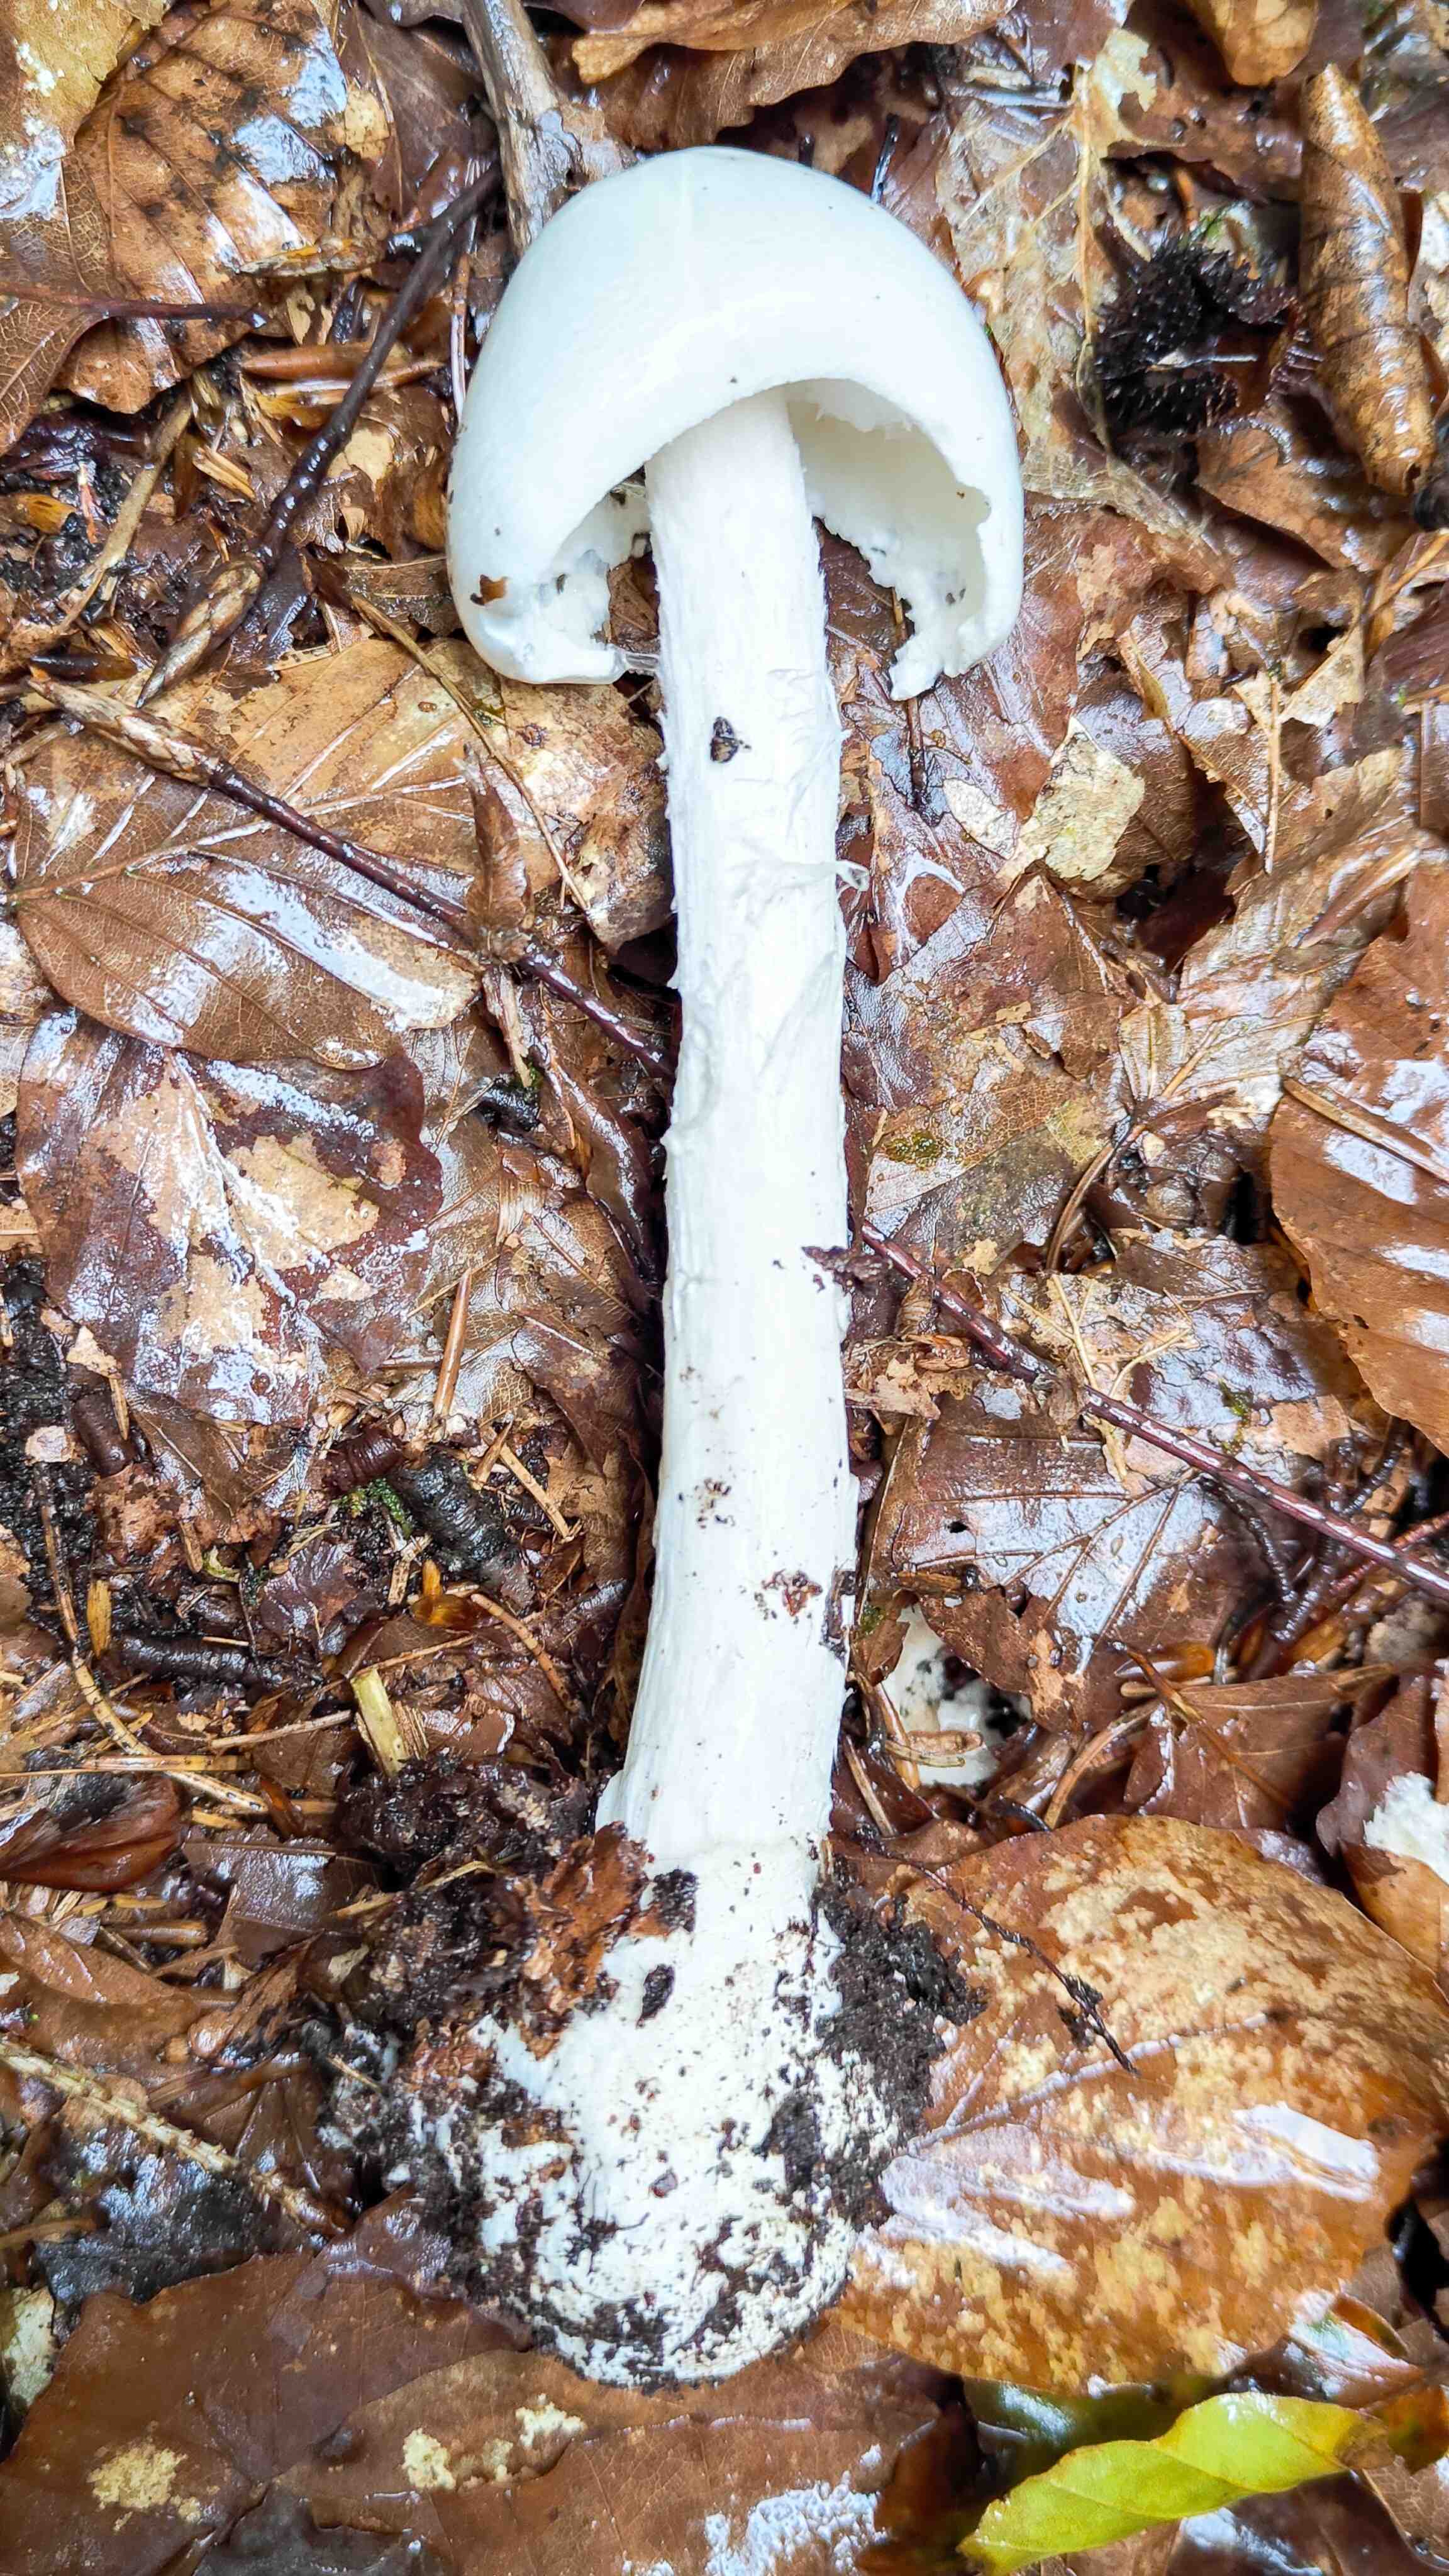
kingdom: Fungi
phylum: Basidiomycota
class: Agaricomycetes
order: Agaricales
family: Amanitaceae
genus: Amanita
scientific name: Amanita virosa
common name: snehvid fluesvamp
